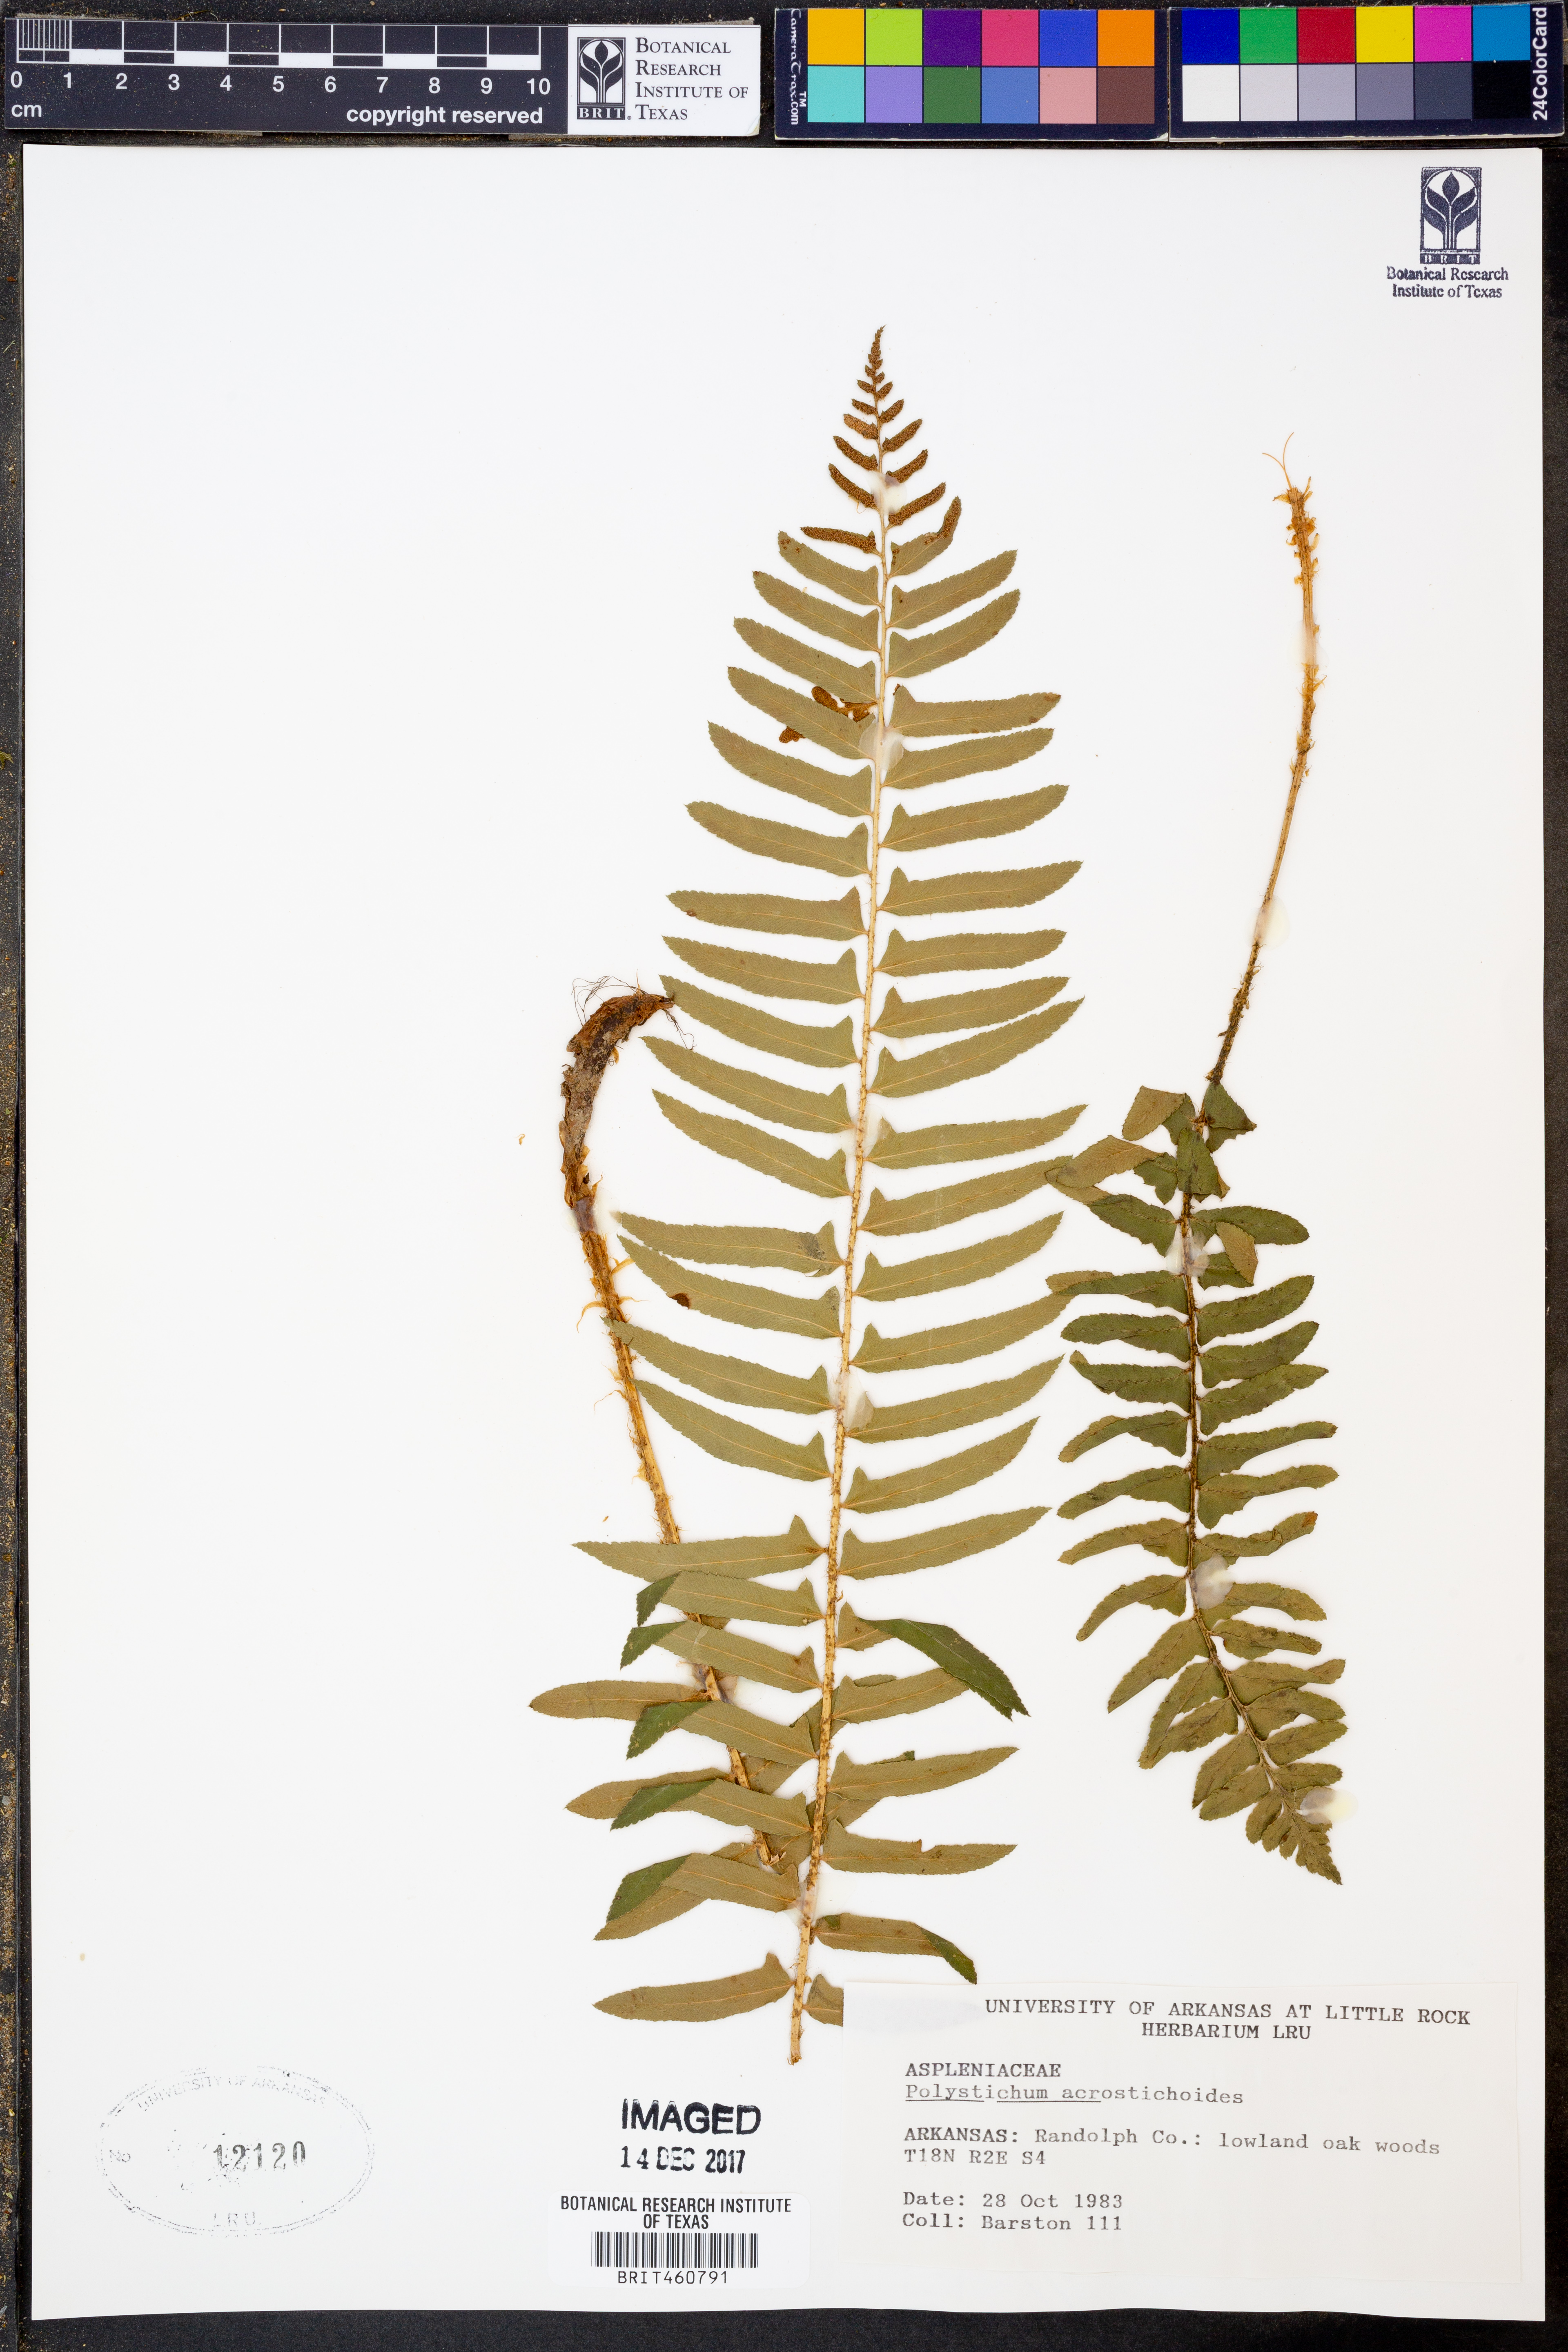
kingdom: Plantae
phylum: Tracheophyta
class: Polypodiopsida
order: Polypodiales
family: Dryopteridaceae
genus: Polystichum
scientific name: Polystichum acrostichoides
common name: Christmas fern
